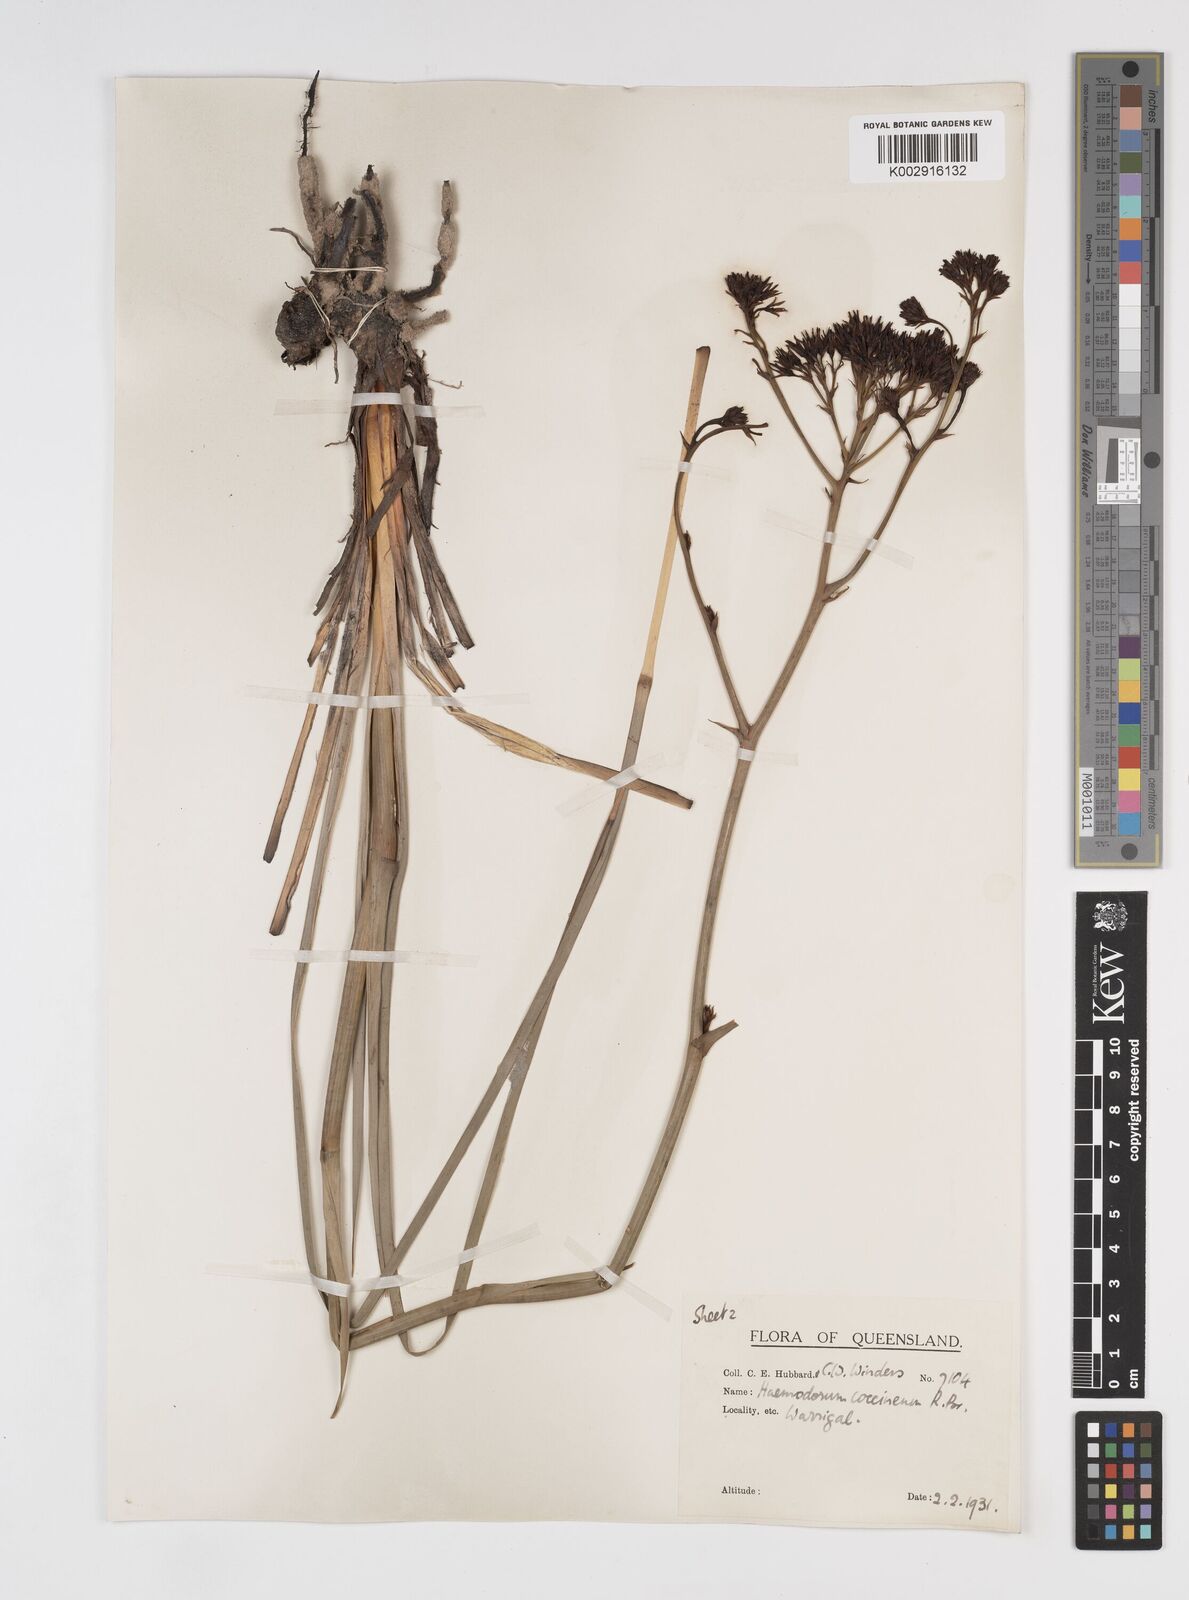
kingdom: Plantae
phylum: Tracheophyta
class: Liliopsida
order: Commelinales
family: Haemodoraceae
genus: Haemodorum
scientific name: Haemodorum coccineum
